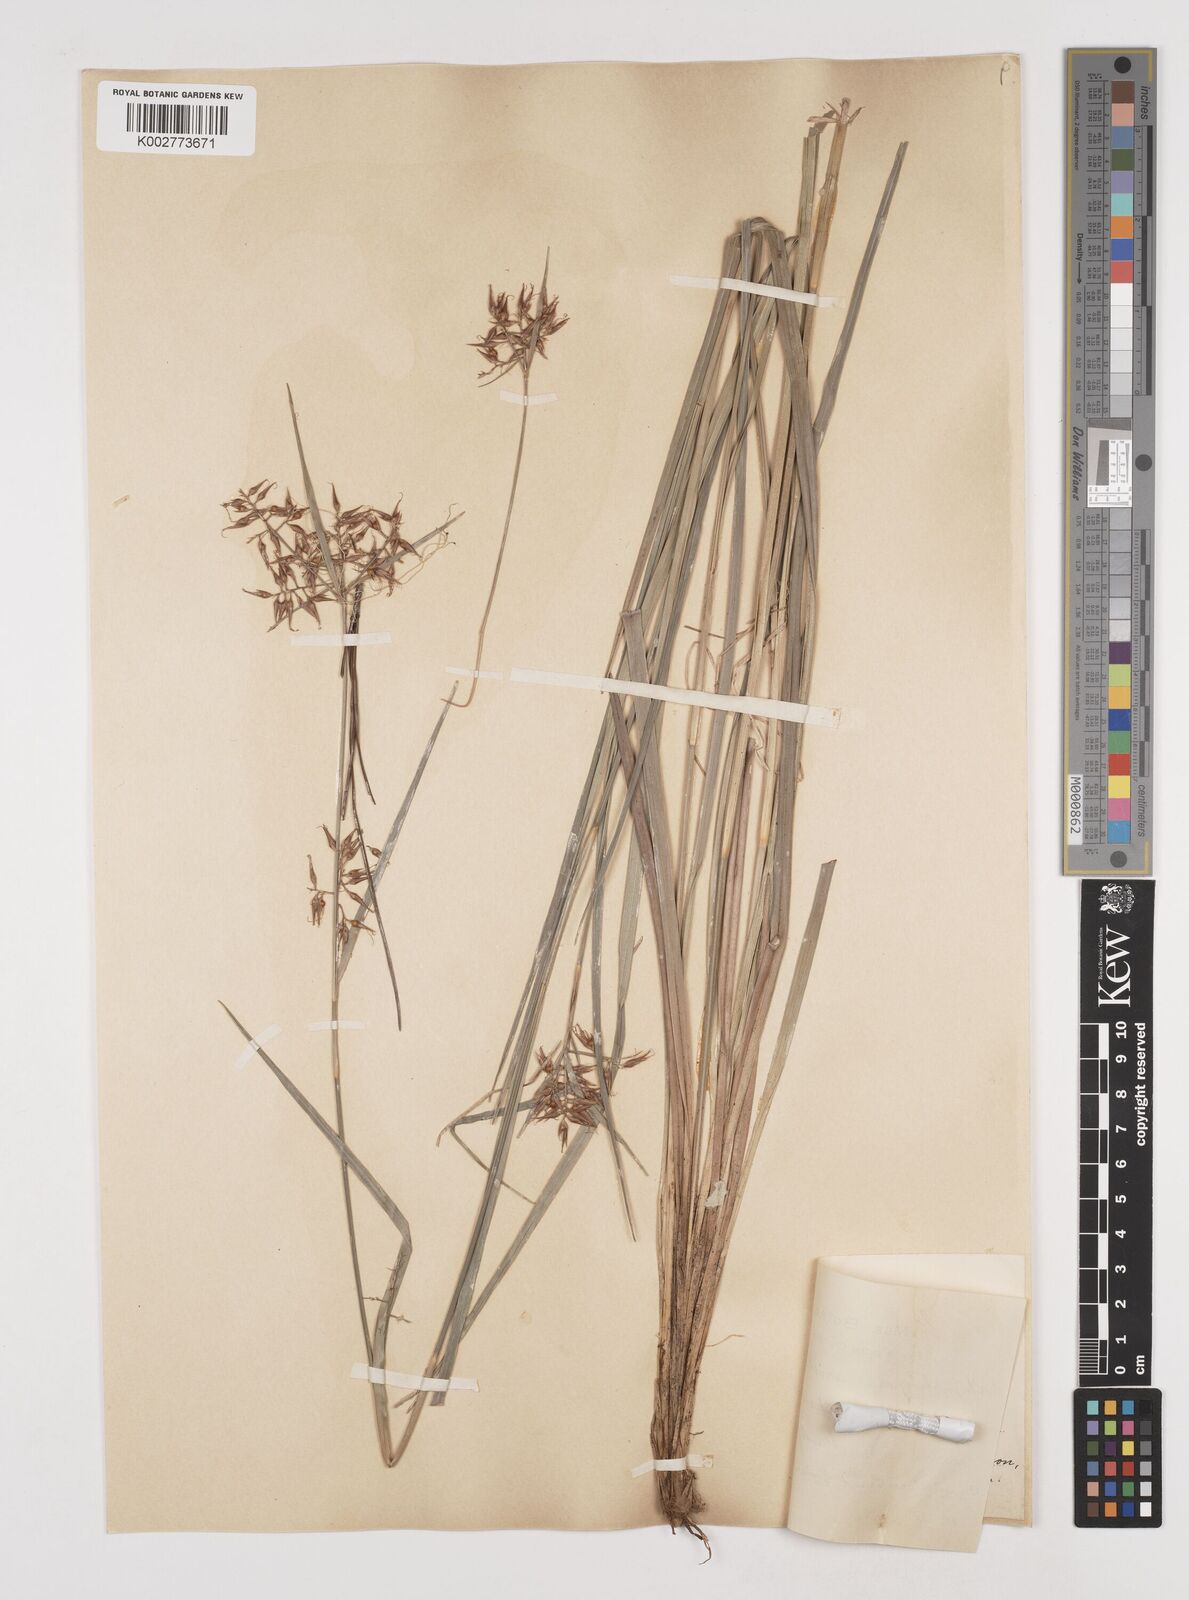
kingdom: Plantae
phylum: Tracheophyta
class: Liliopsida
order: Poales
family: Cyperaceae
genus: Rhynchospora
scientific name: Rhynchospora aristata
